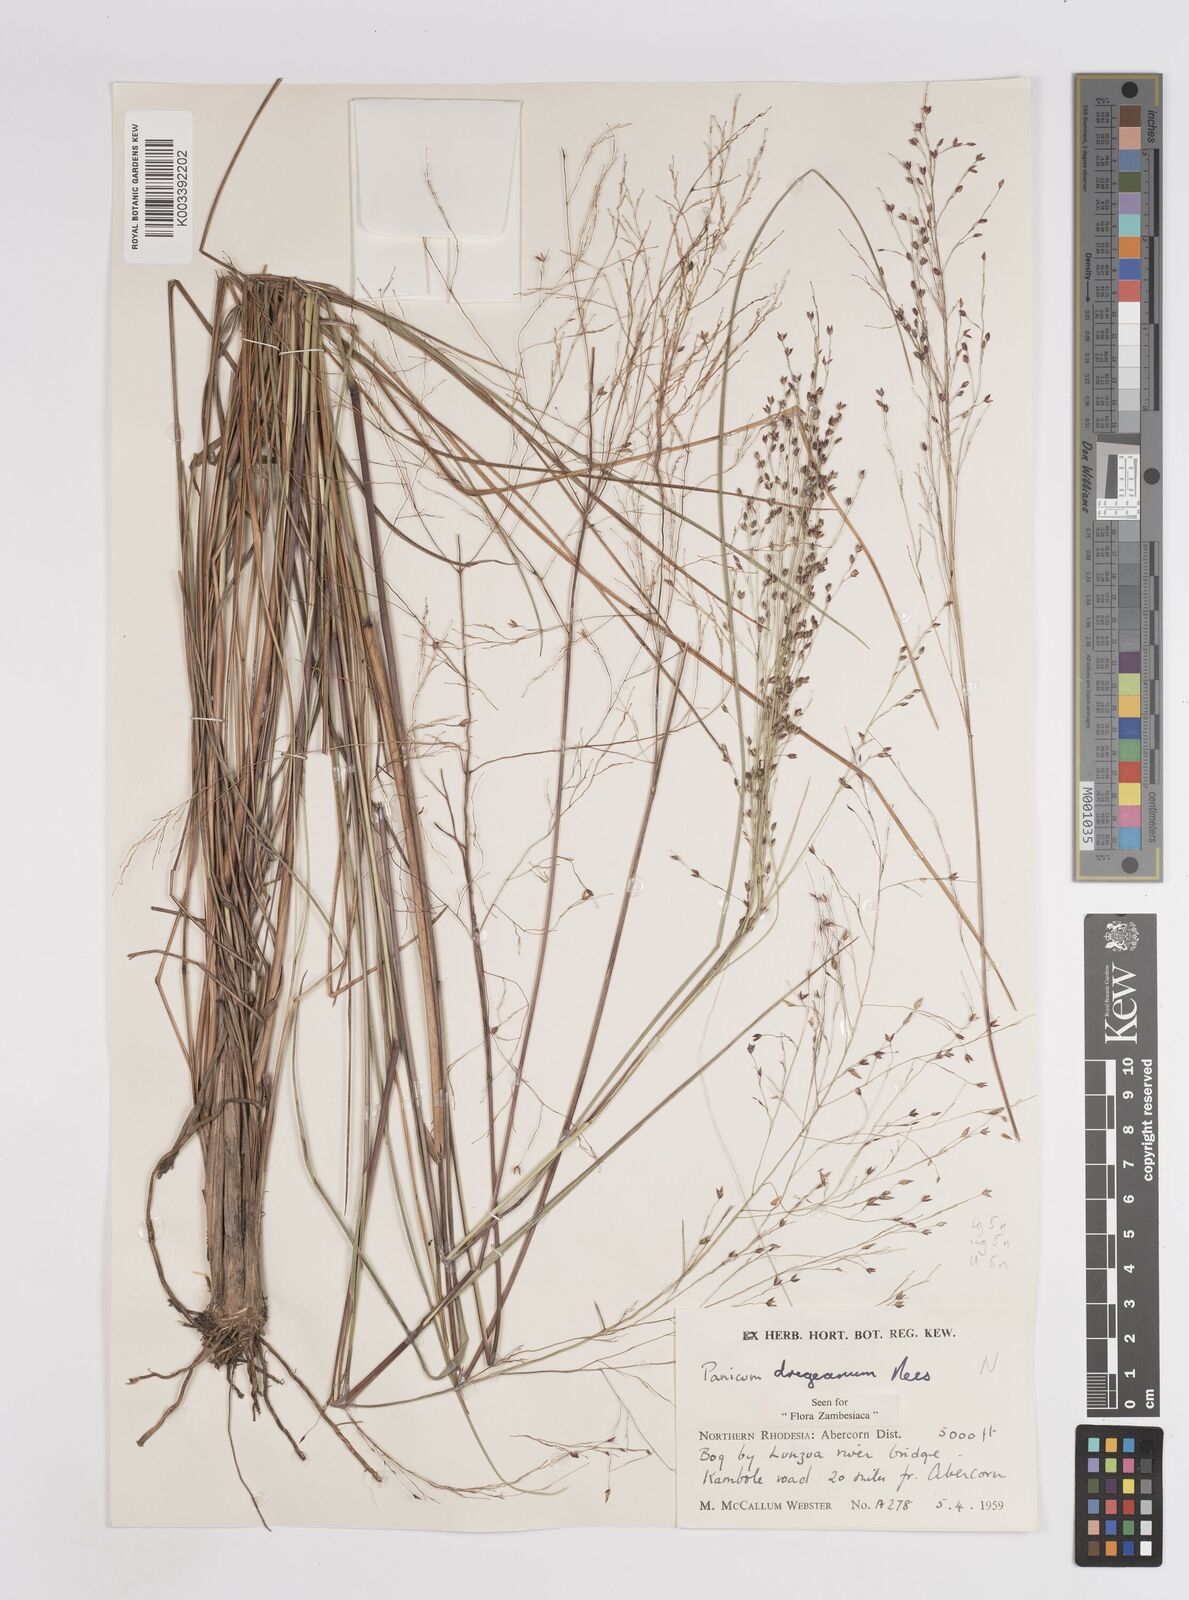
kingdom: Plantae
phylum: Tracheophyta
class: Liliopsida
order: Poales
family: Poaceae
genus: Panicum
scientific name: Panicum dregeanum
